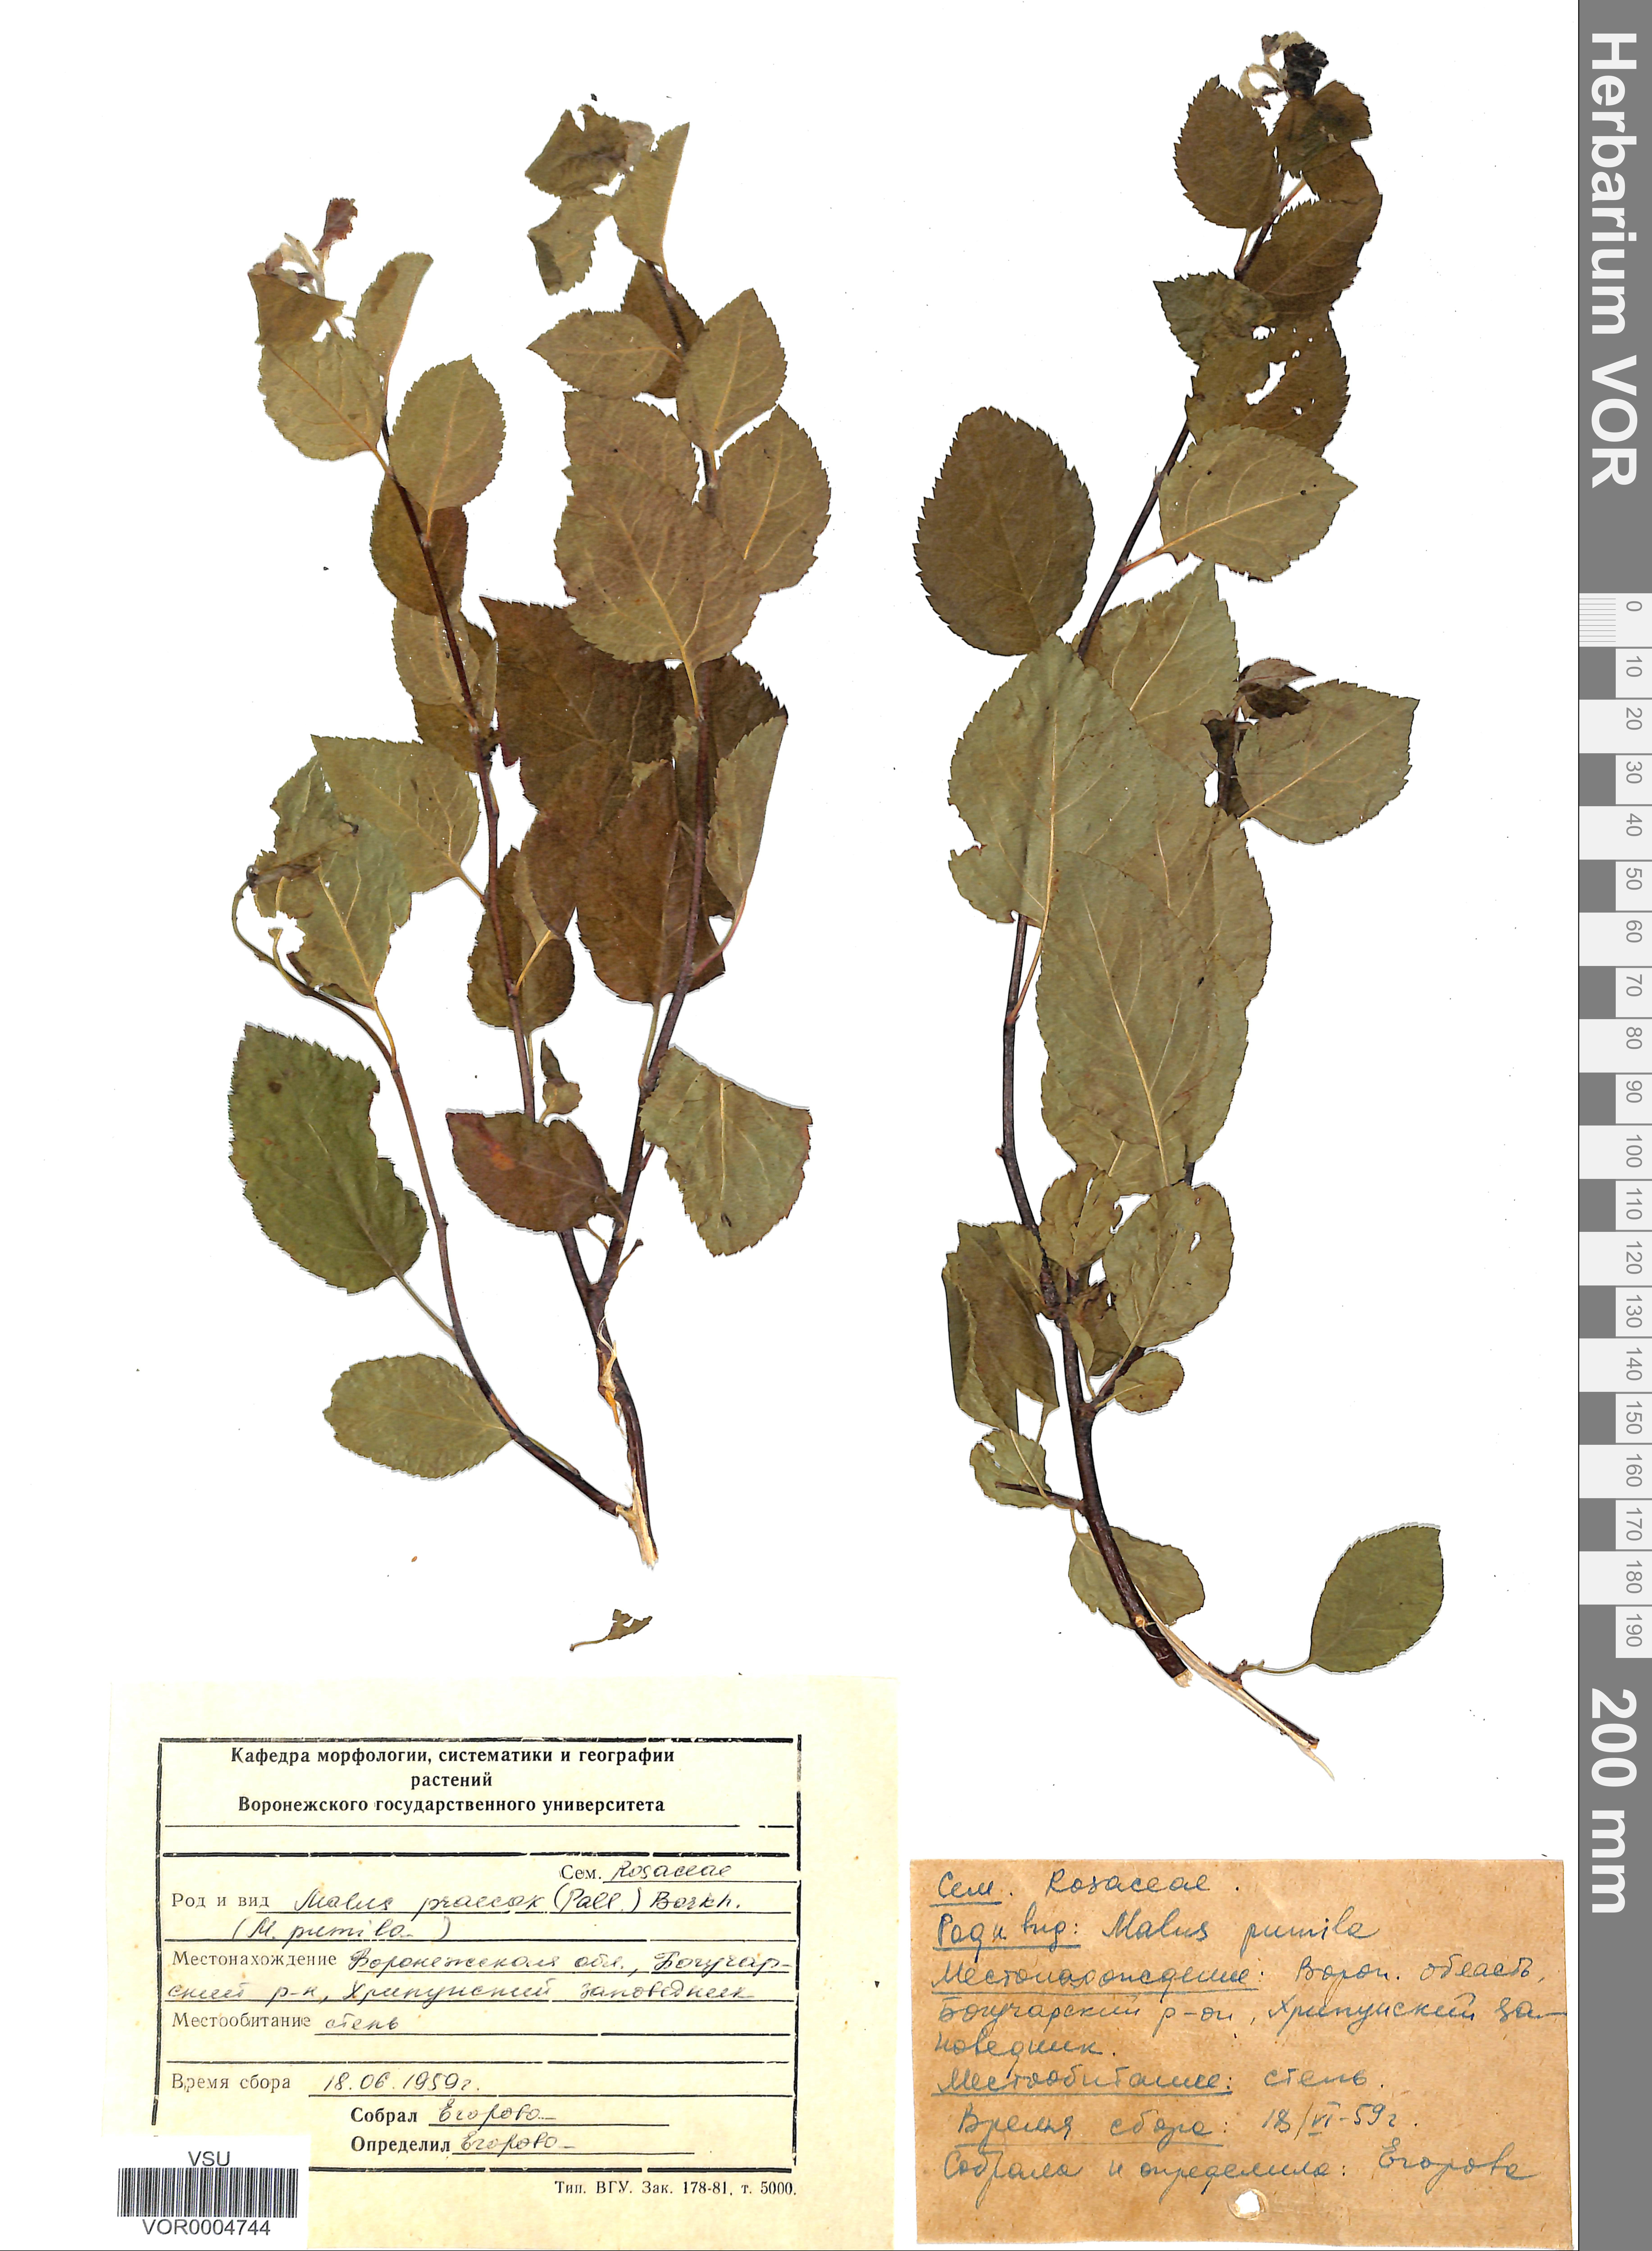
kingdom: Plantae
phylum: Tracheophyta
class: Magnoliopsida
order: Rosales
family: Rosaceae
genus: Malus
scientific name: Malus domestica
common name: Apple
